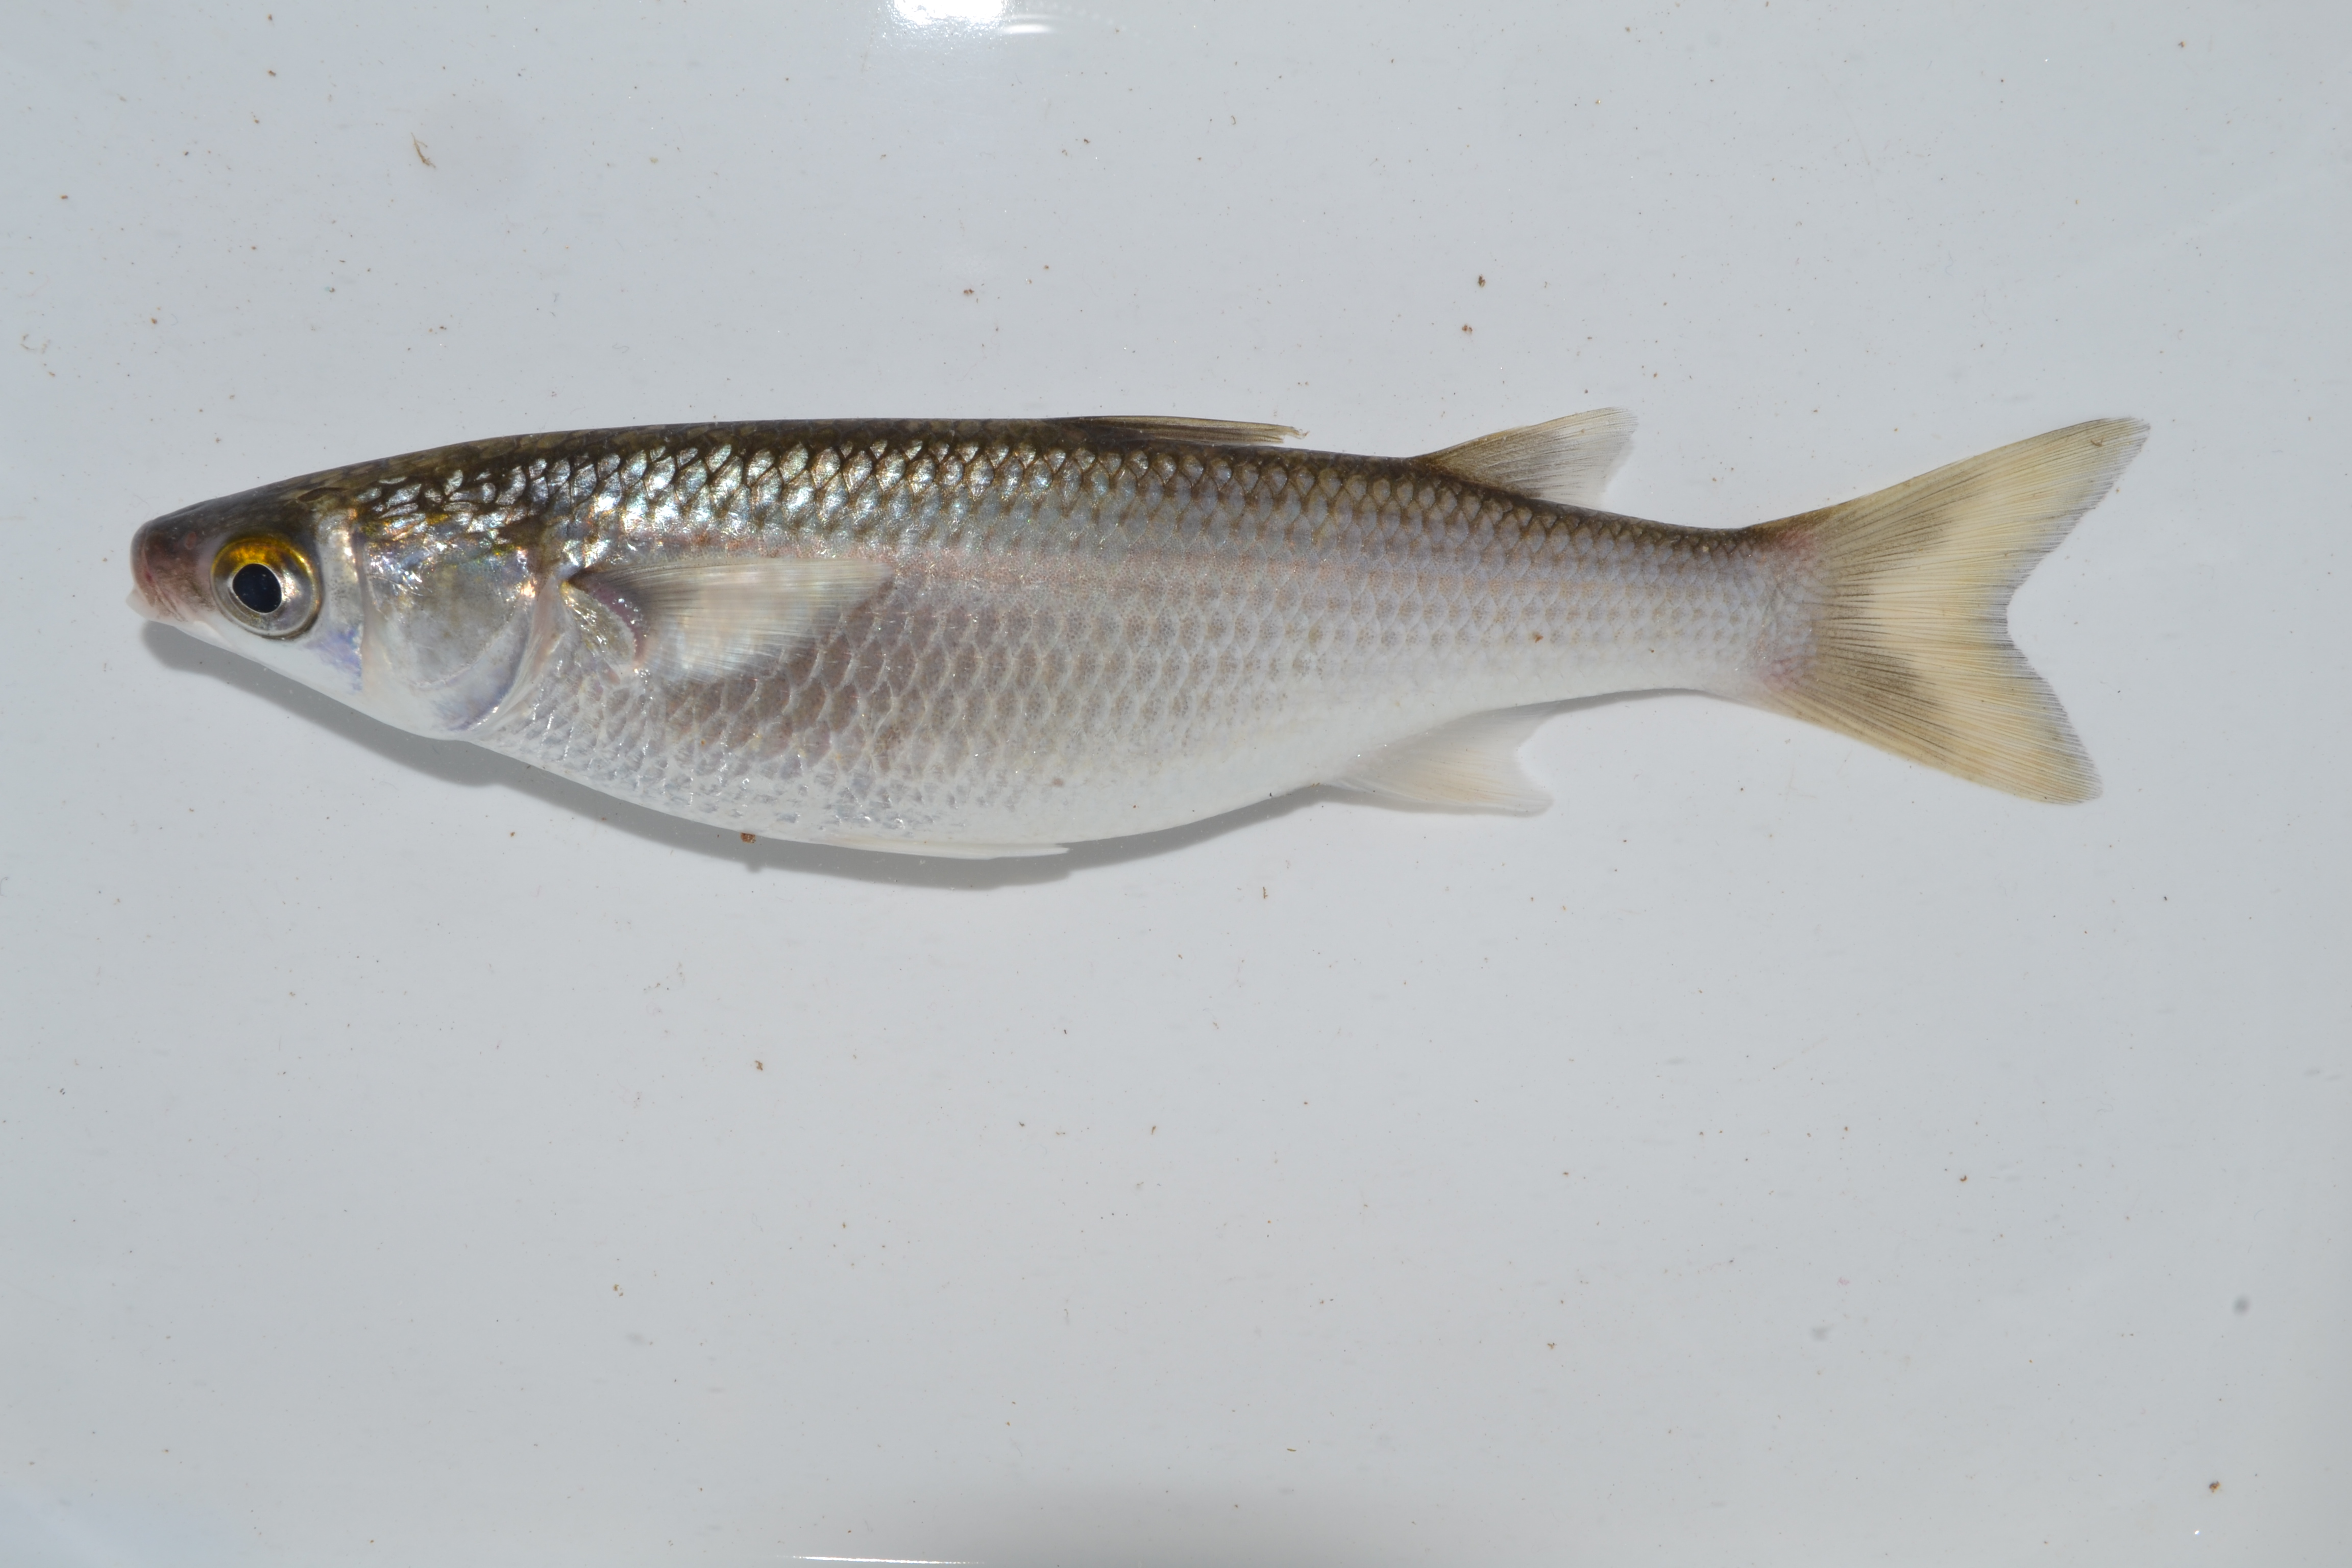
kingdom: Animalia
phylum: Chordata
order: Mugiliformes
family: Mugilidae
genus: Mugil
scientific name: Mugil
